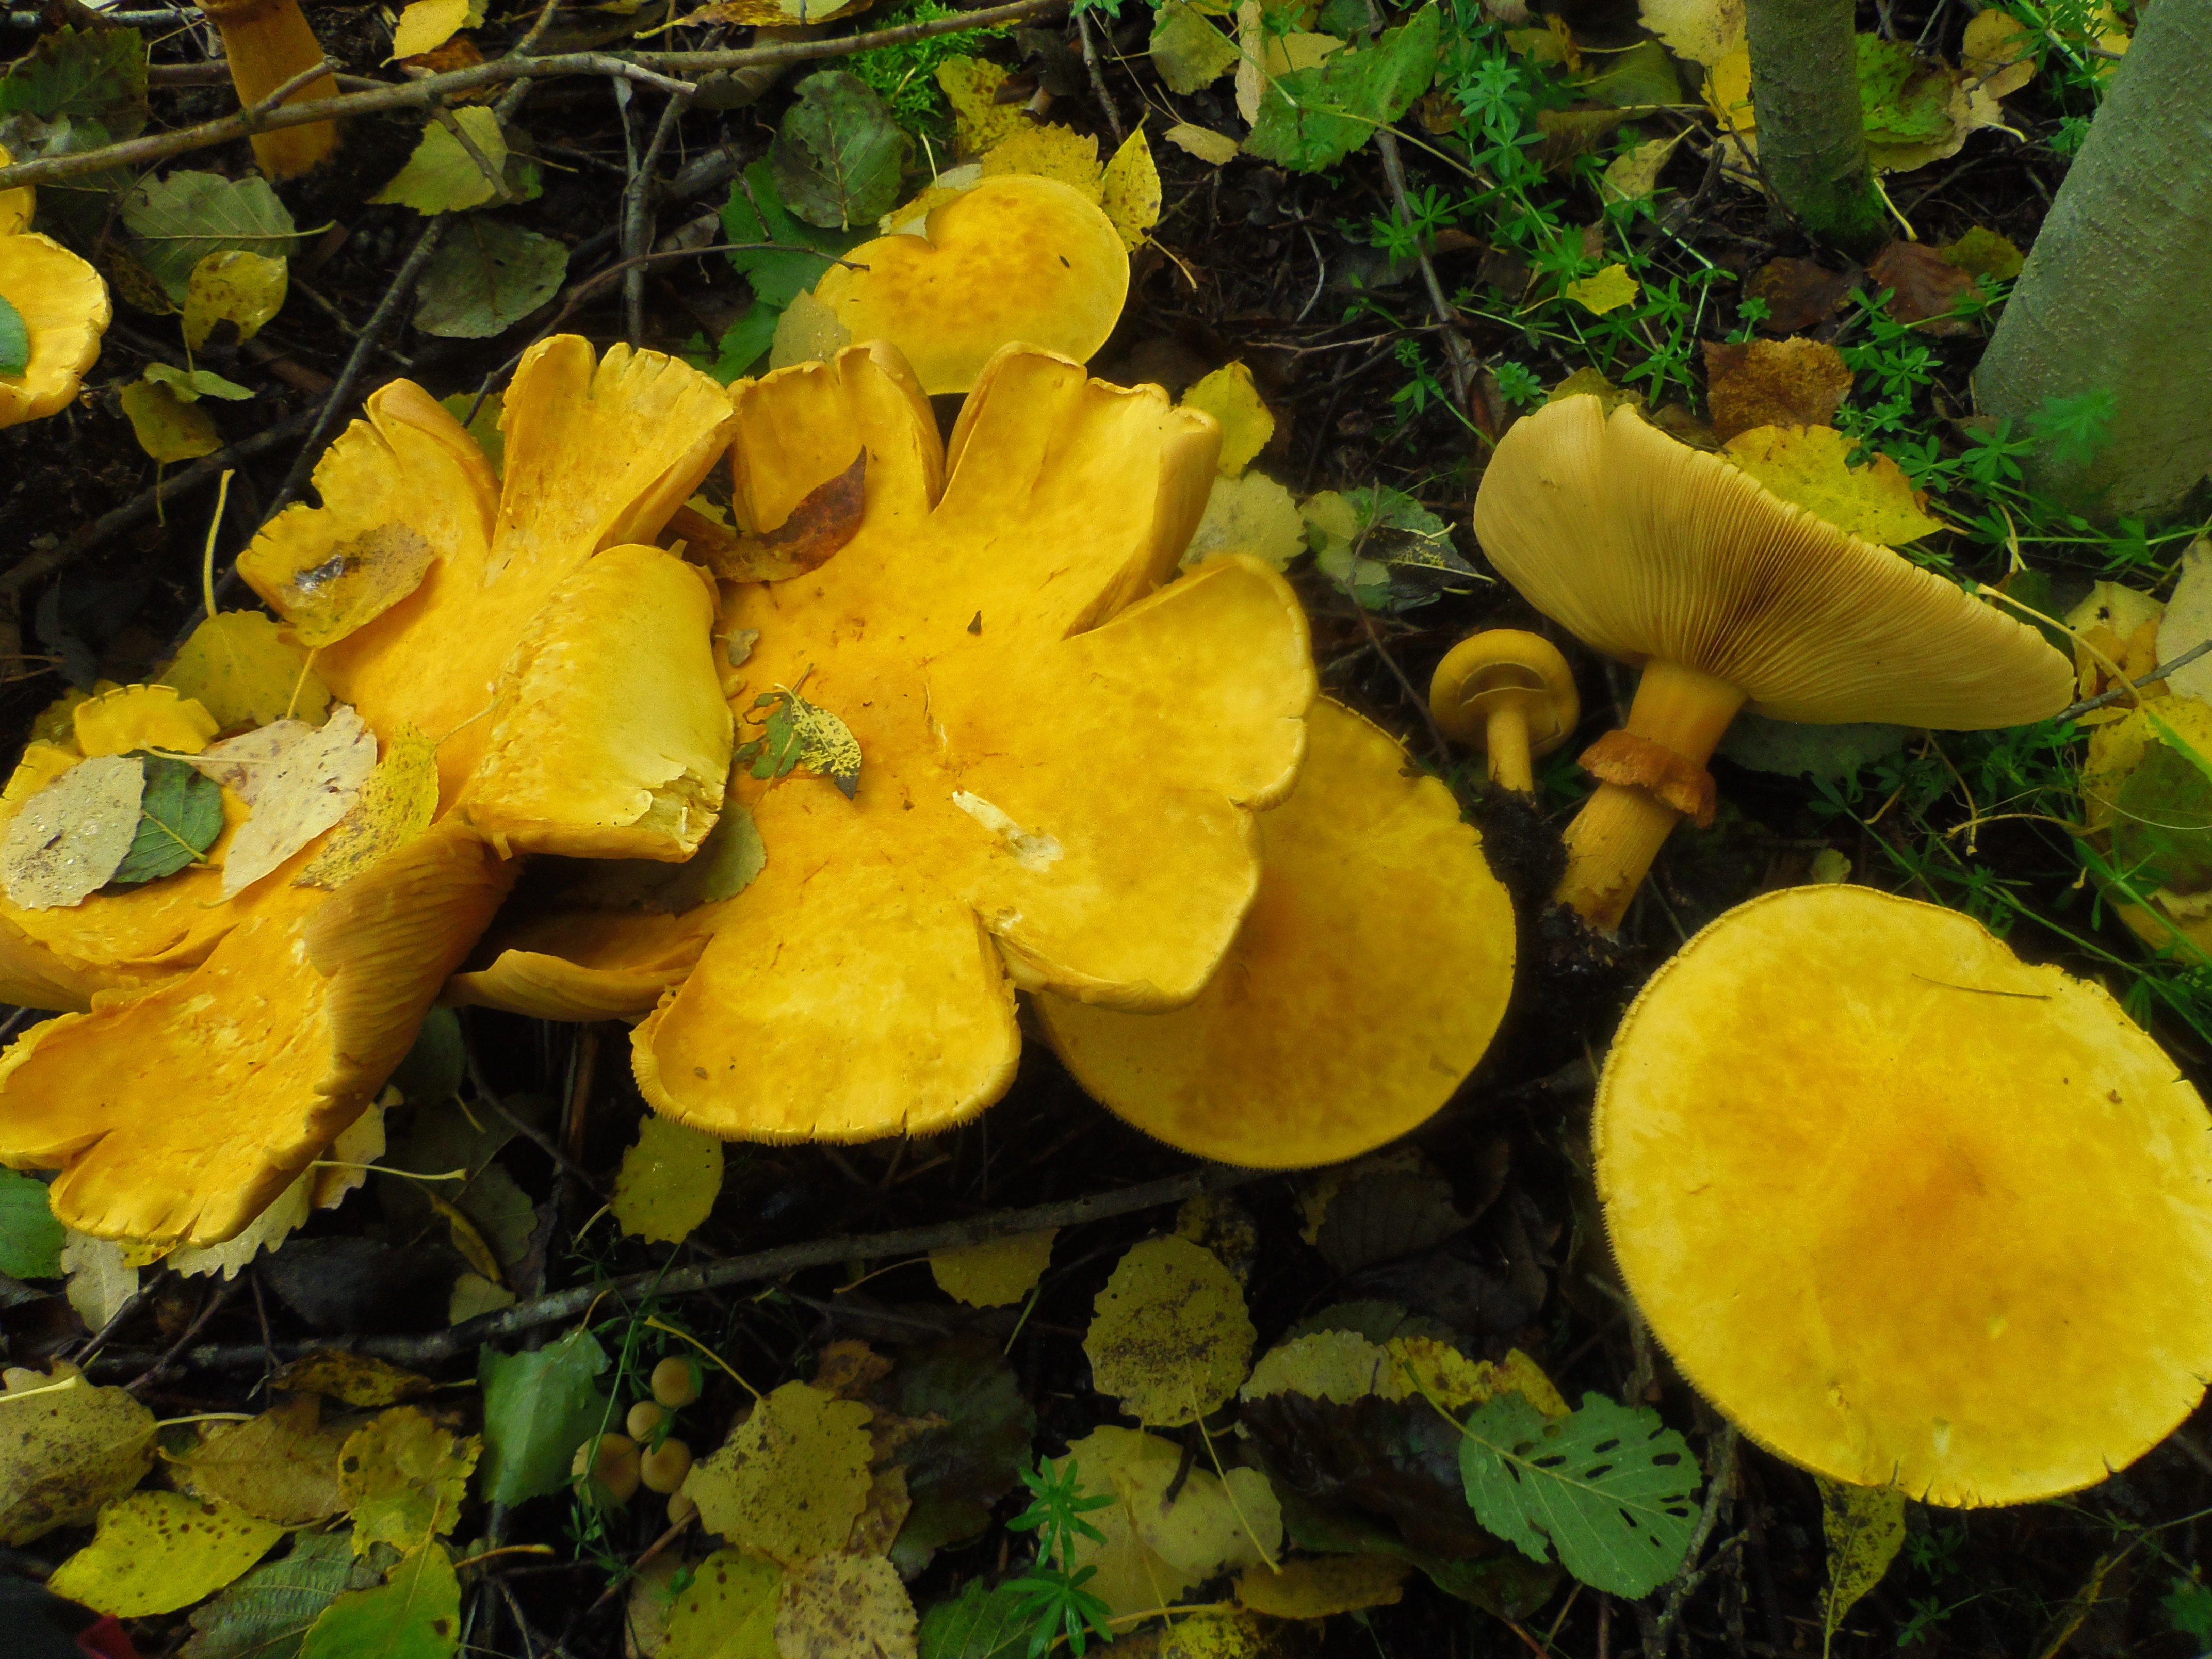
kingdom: Fungi
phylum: Basidiomycota
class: Agaricomycetes
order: Agaricales
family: Tricholomataceae
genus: Phaeolepiota
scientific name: Phaeolepiota aurea
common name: Golden bootleg
